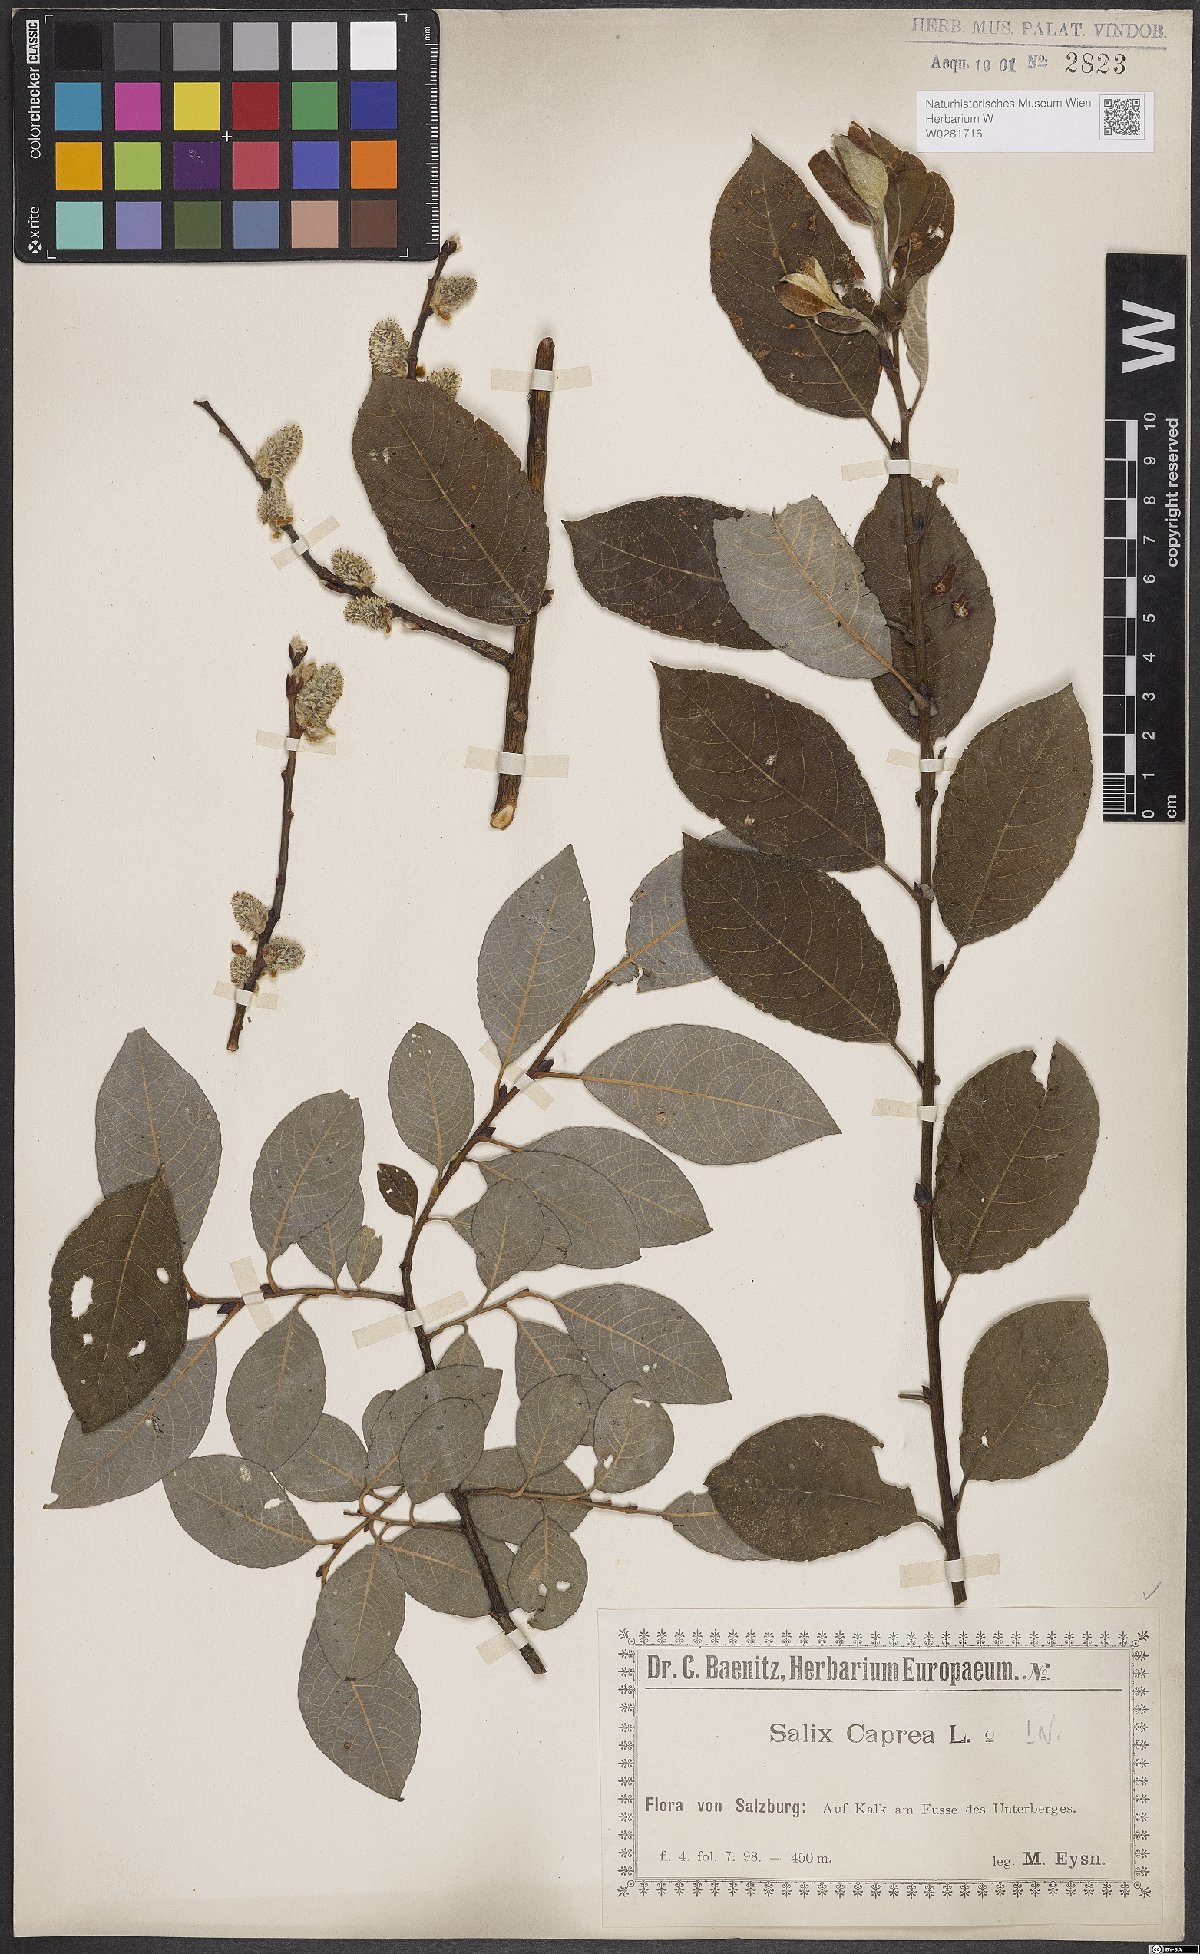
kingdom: Plantae
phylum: Tracheophyta
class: Magnoliopsida
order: Malpighiales
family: Salicaceae
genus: Salix
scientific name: Salix caprea
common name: Goat willow
